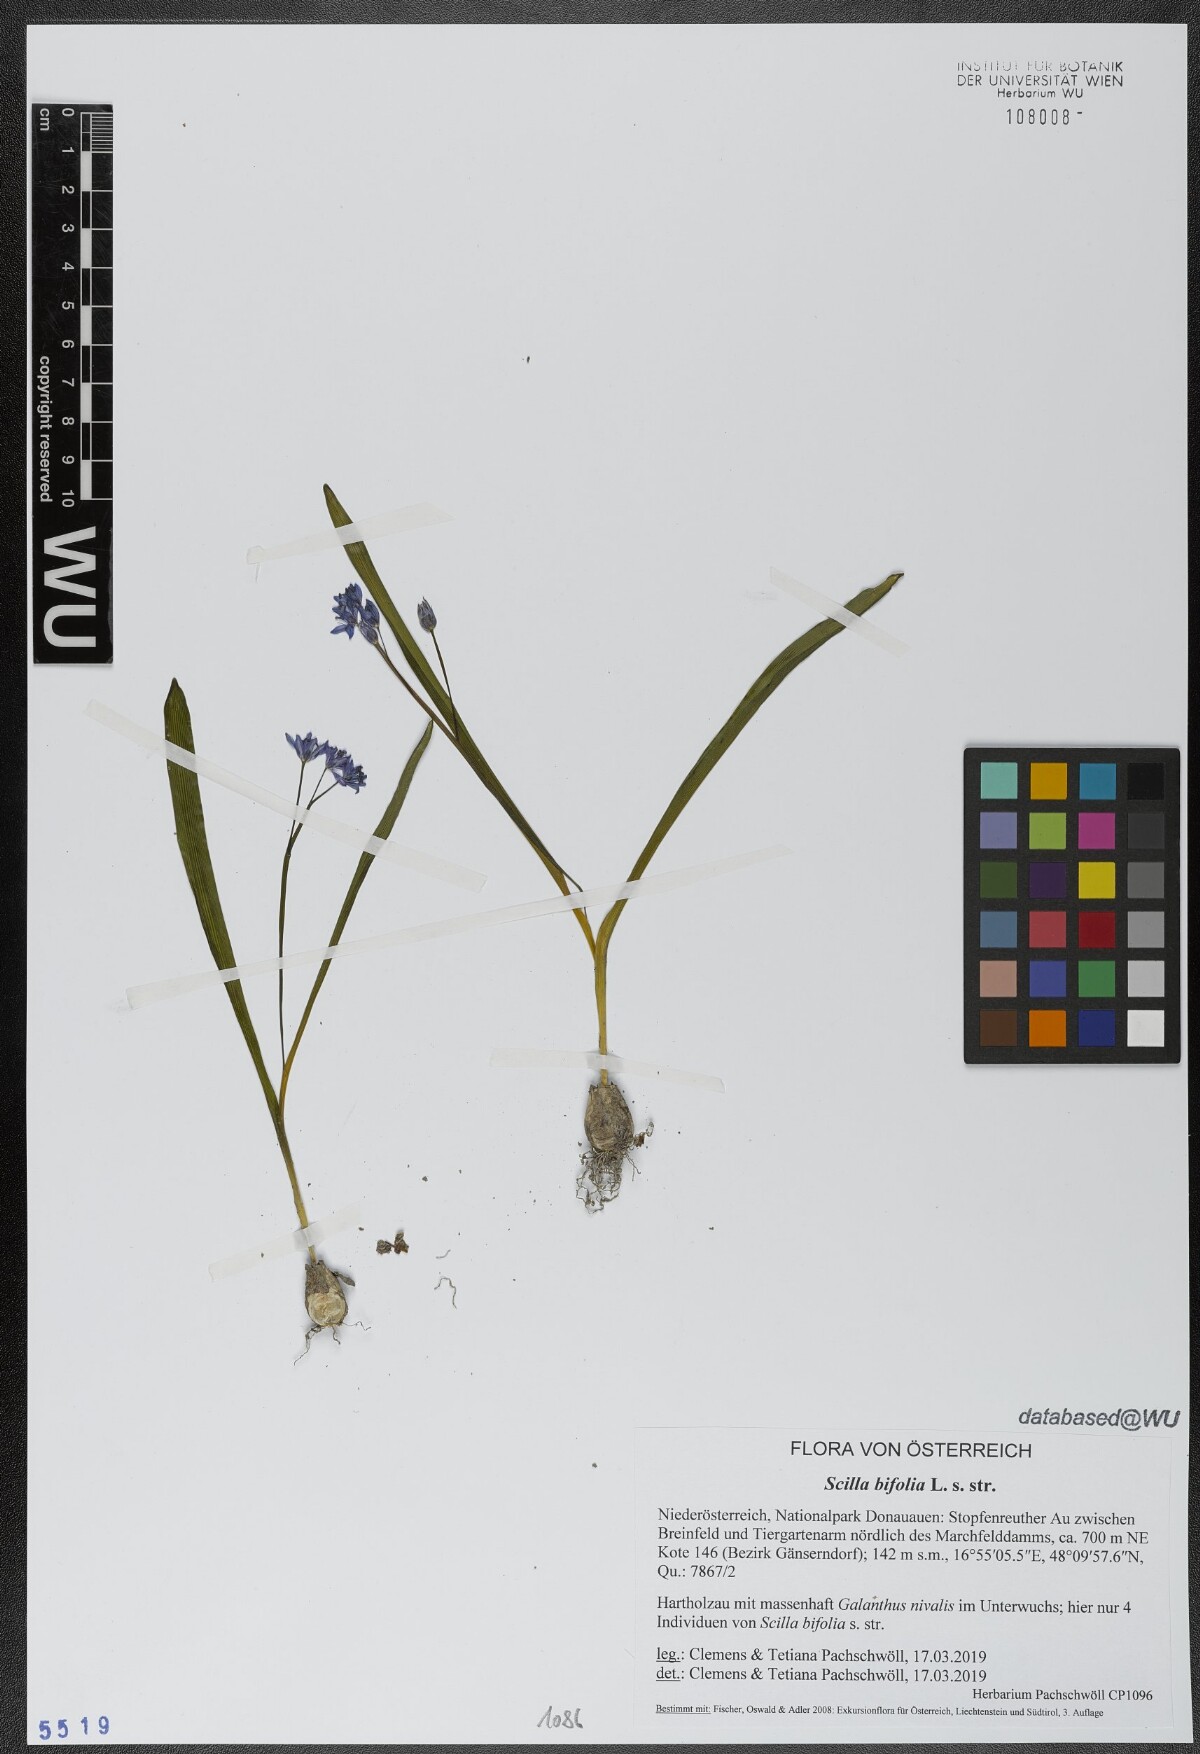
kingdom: Plantae
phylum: Tracheophyta
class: Liliopsida
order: Asparagales
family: Asparagaceae
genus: Scilla
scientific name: Scilla bifolia
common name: Alpine squill
